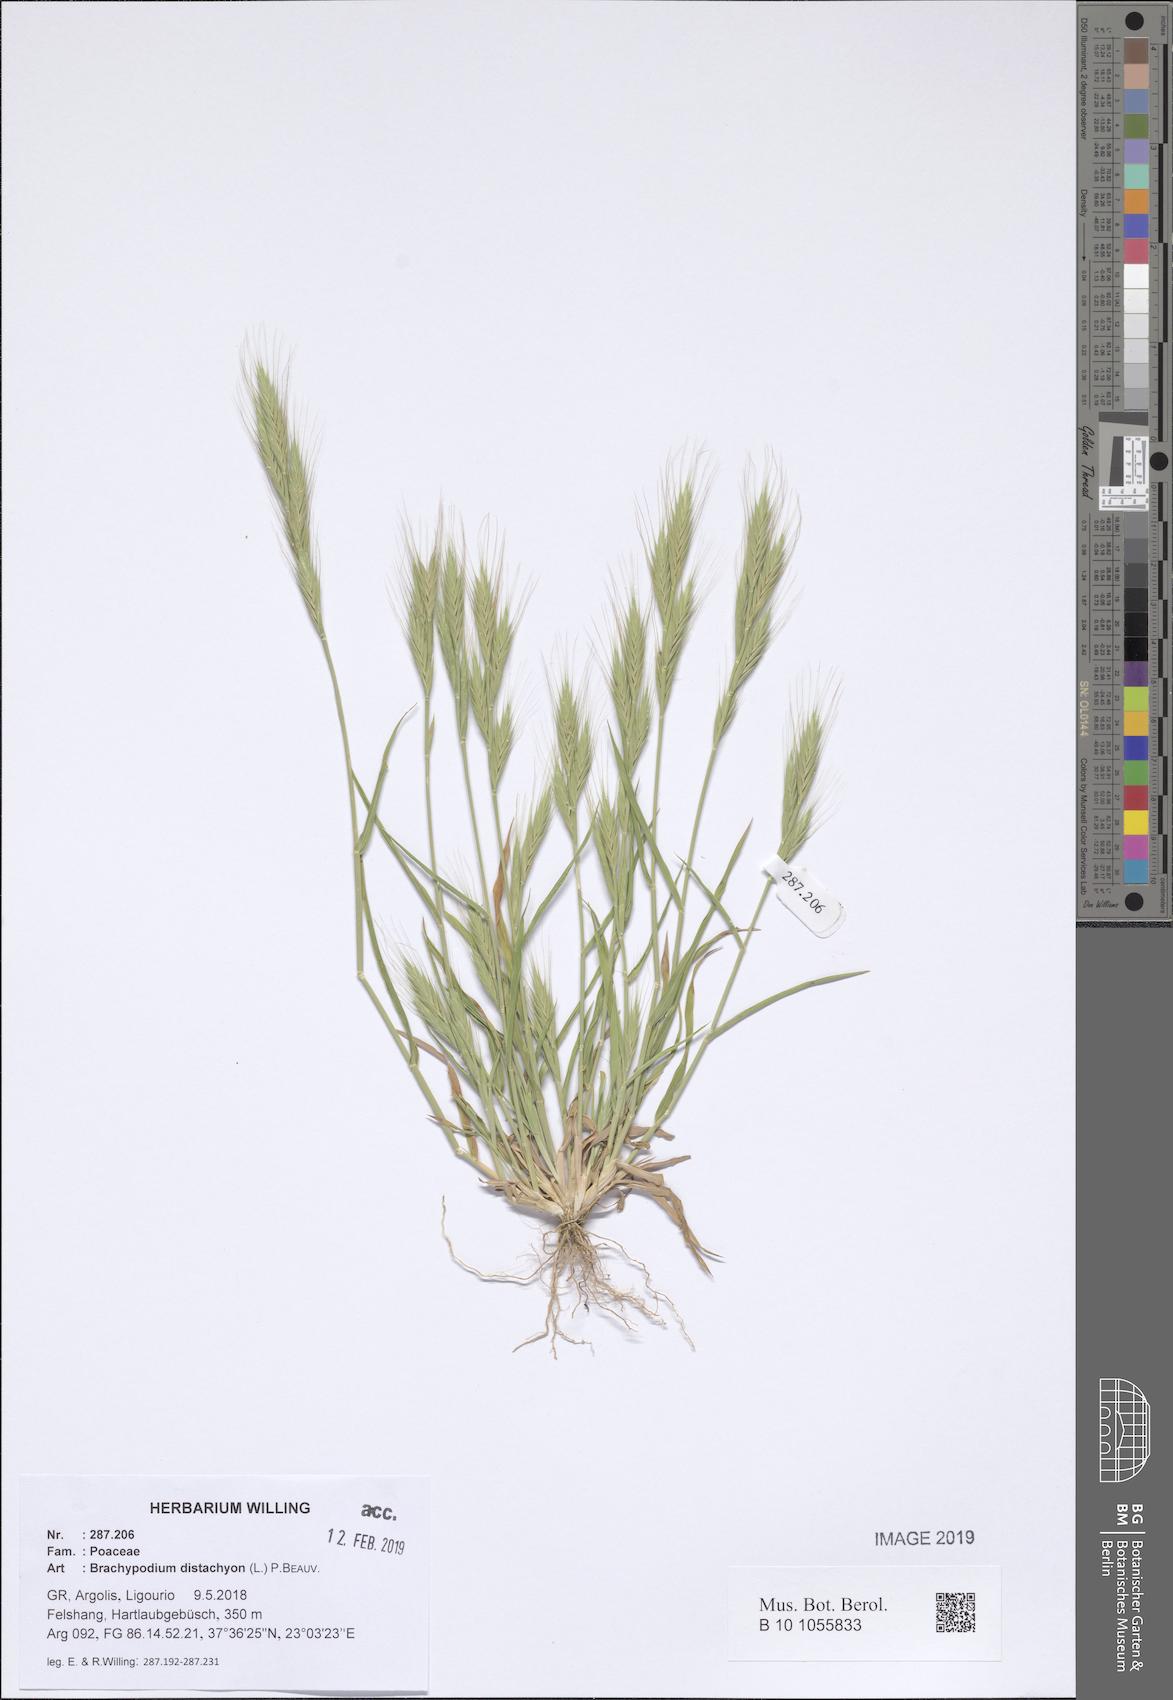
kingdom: Plantae
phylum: Tracheophyta
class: Liliopsida
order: Poales
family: Poaceae
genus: Brachypodium
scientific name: Brachypodium distachyon
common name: Stiff brome
